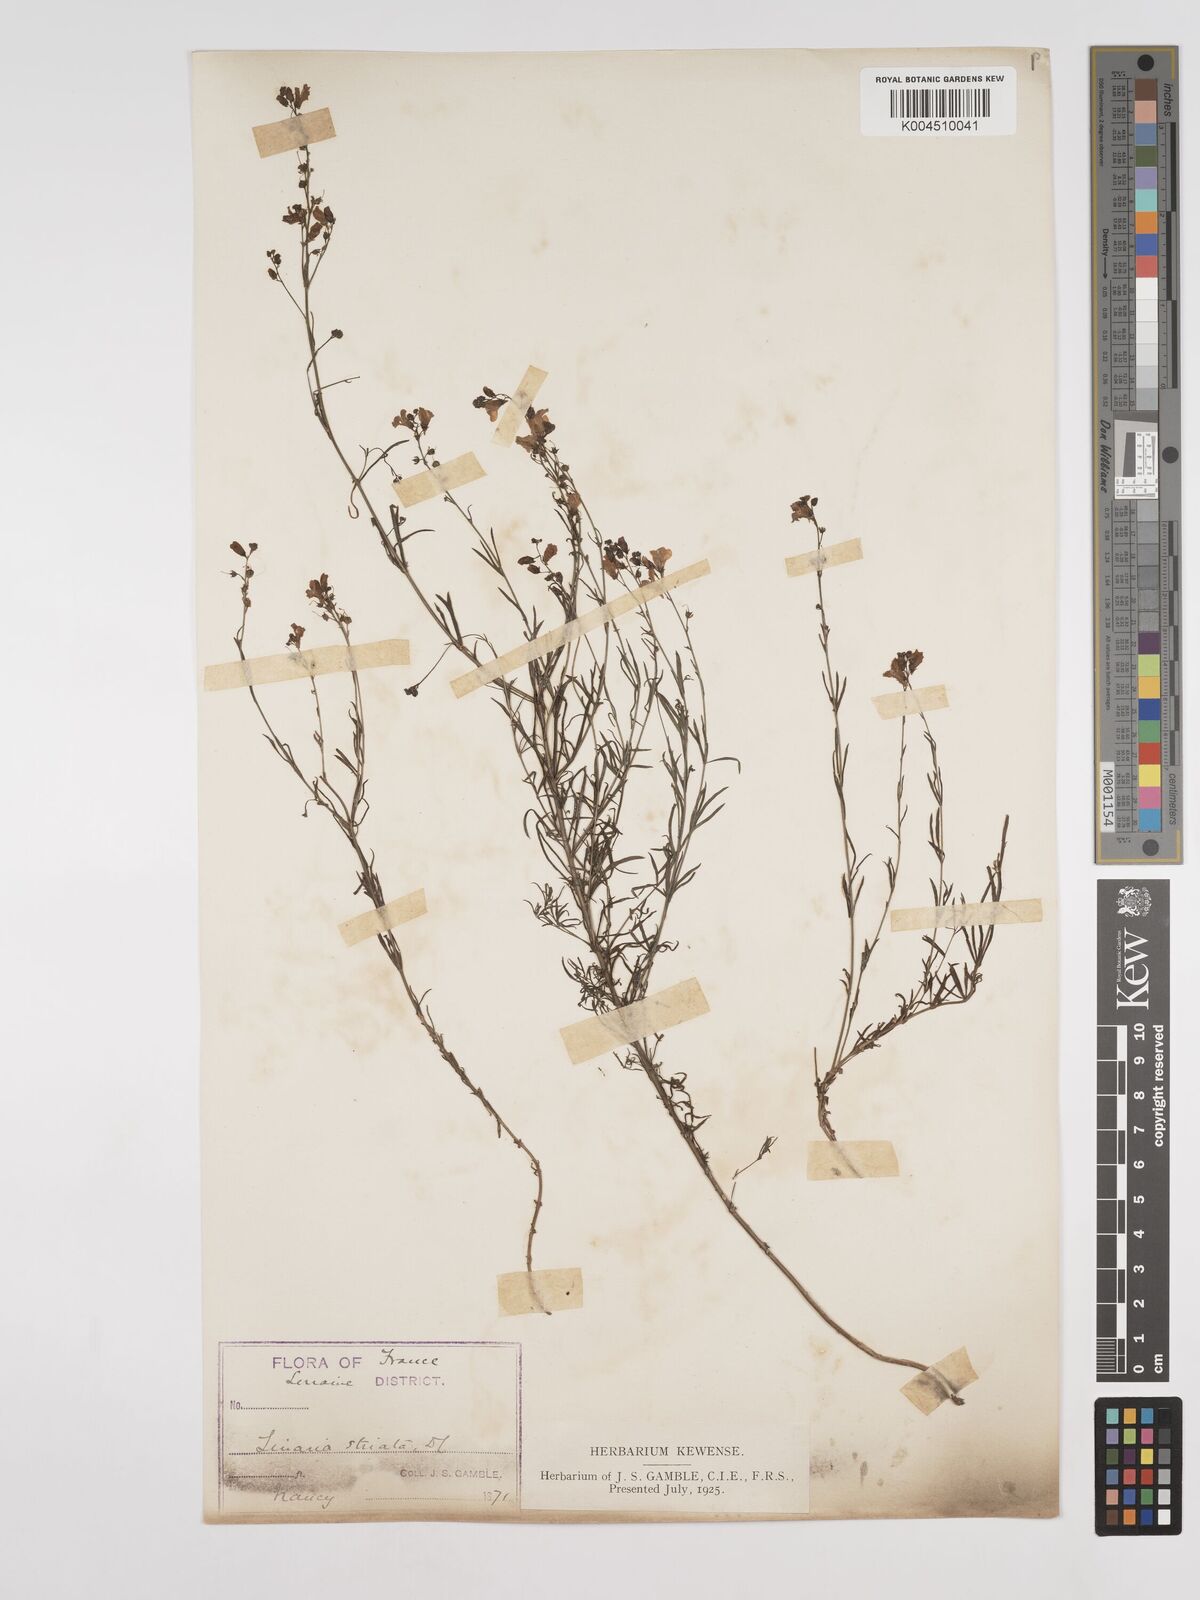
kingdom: Plantae
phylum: Tracheophyta
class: Magnoliopsida
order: Lamiales
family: Plantaginaceae
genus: Linaria
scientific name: Linaria repens
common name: Pale toadflax
